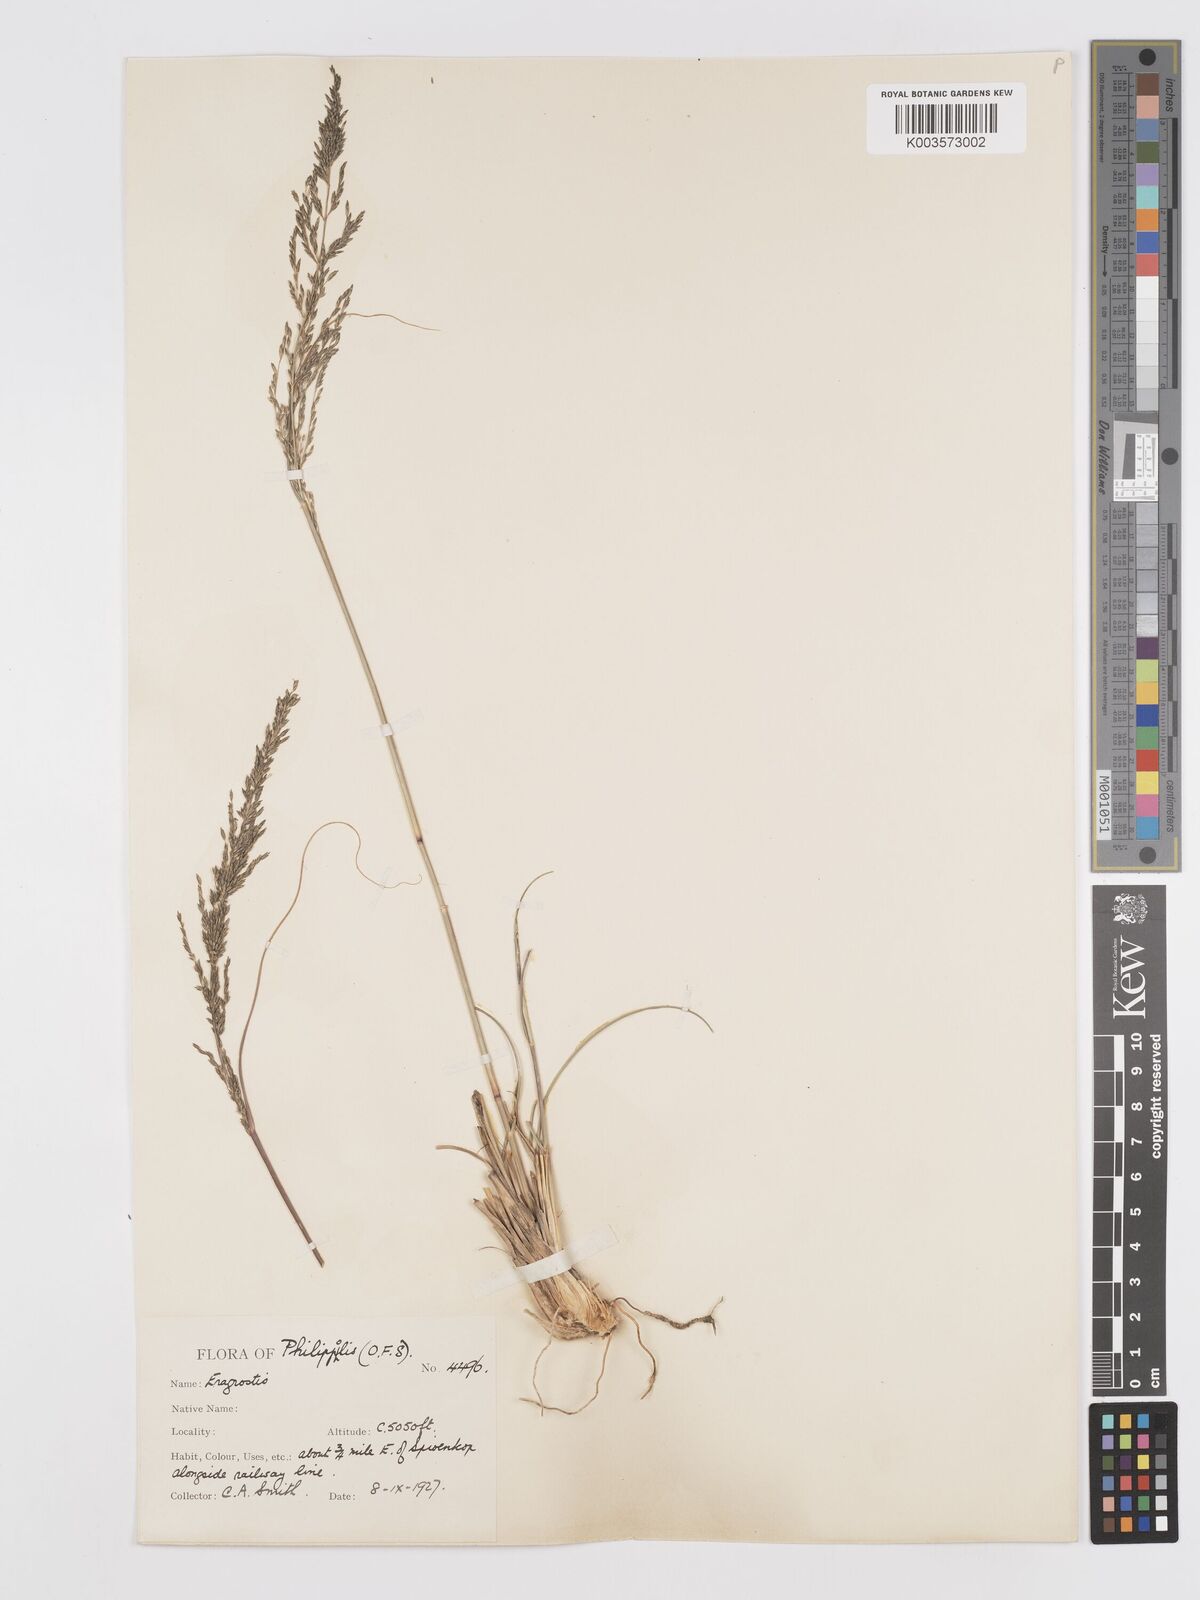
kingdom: Plantae
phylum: Tracheophyta
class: Liliopsida
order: Poales
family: Poaceae
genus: Eragrostis
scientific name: Eragrostis curvula
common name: African love-grass
